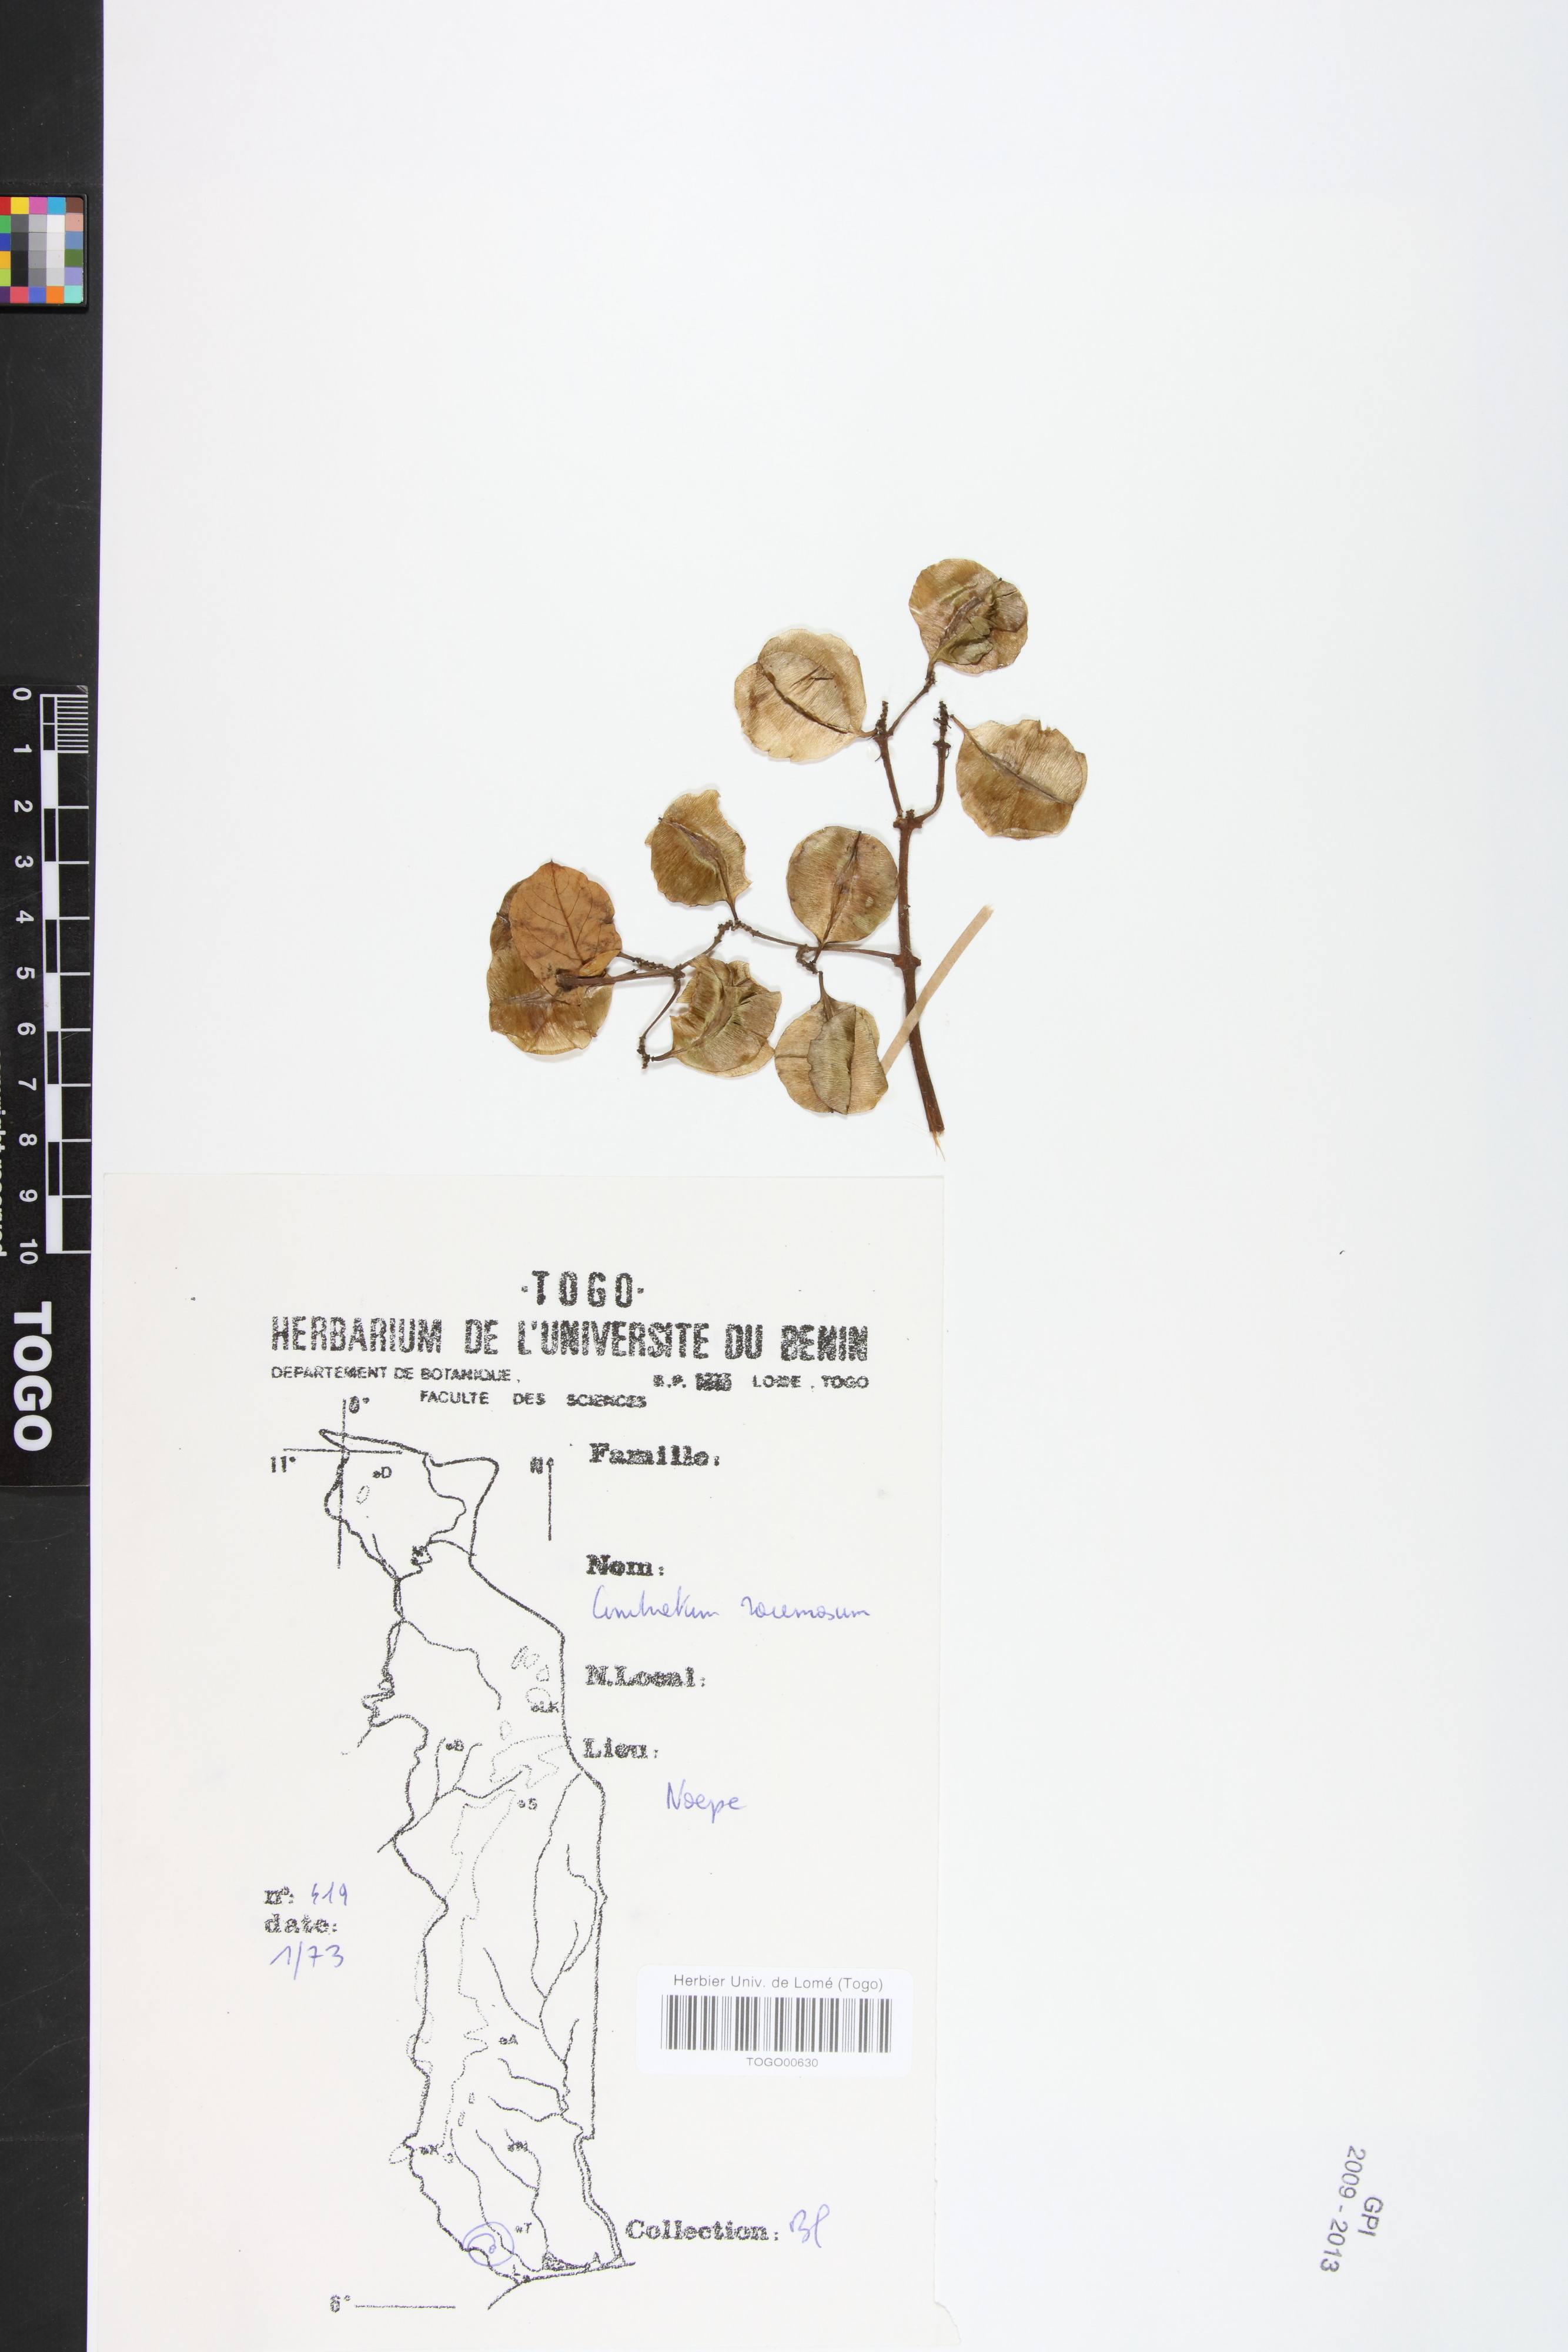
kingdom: Plantae
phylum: Tracheophyta
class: Magnoliopsida
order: Myrtales
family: Combretaceae
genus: Combretum
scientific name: Combretum racemosum
